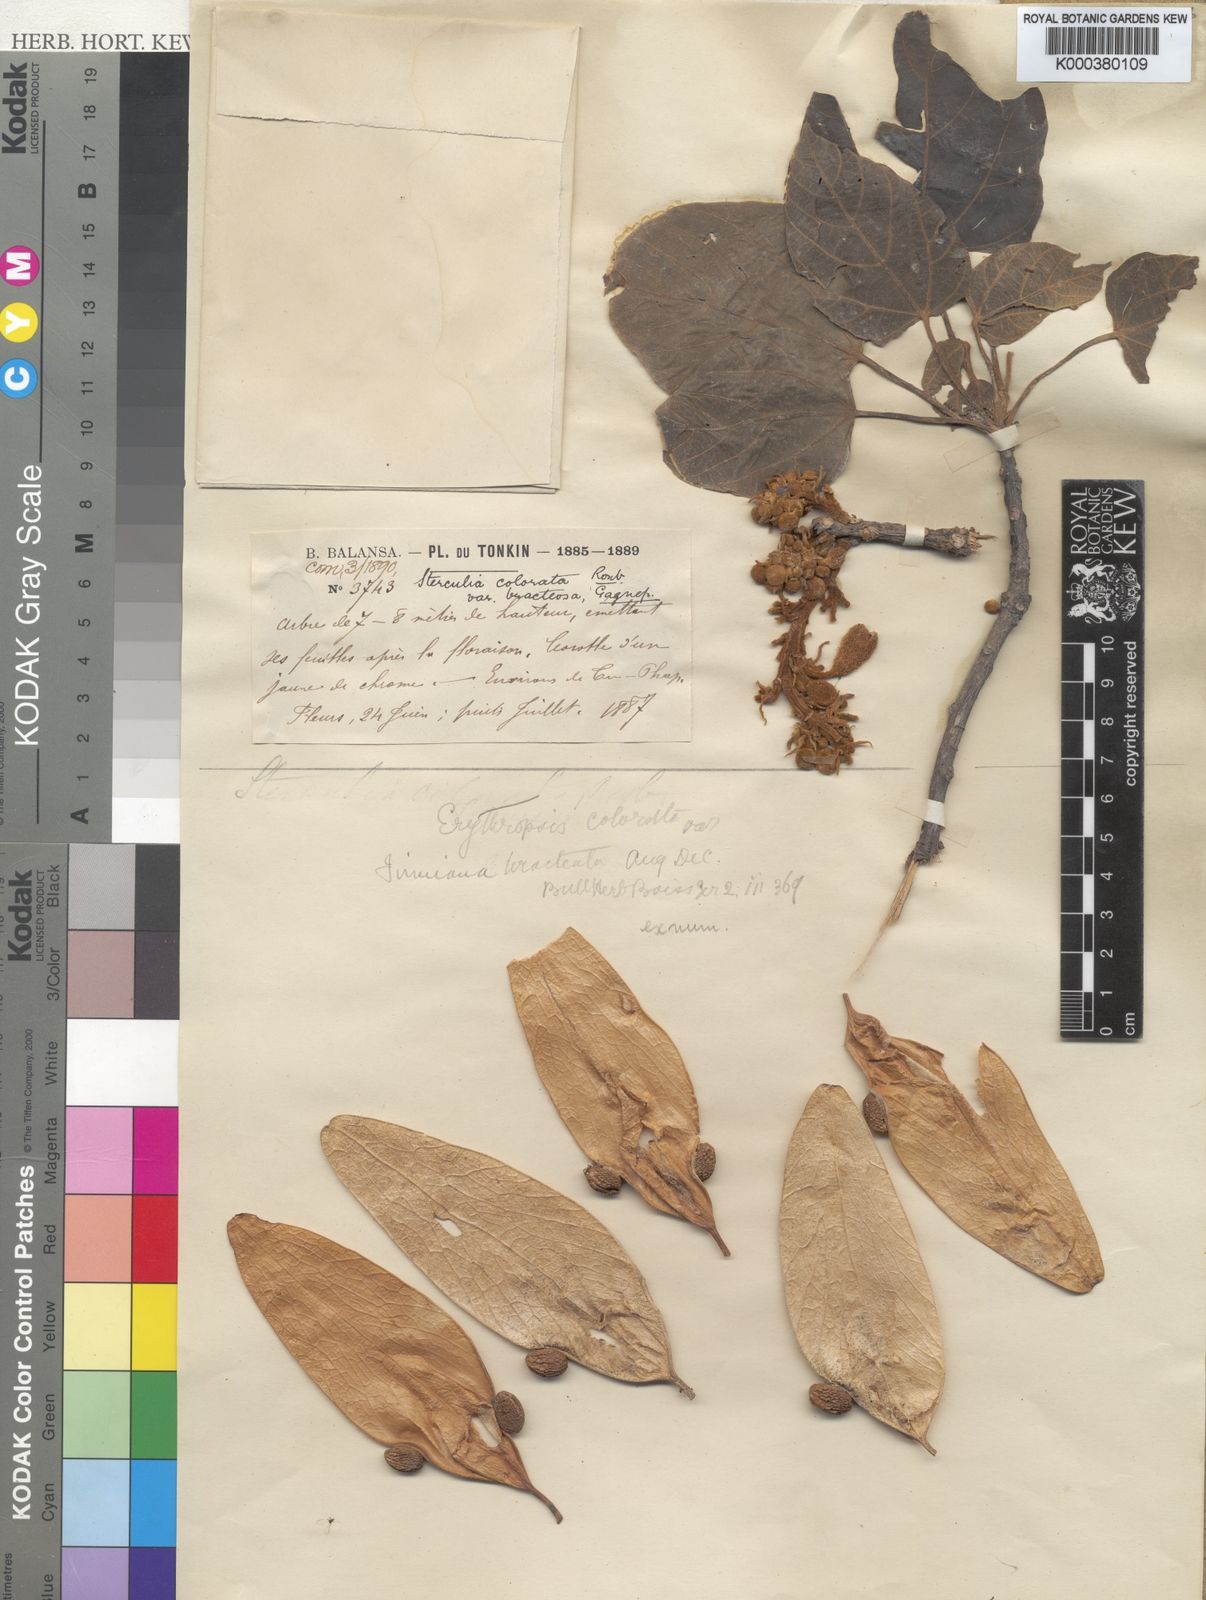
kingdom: Plantae
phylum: Tracheophyta
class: Magnoliopsida
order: Malvales
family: Malvaceae
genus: Firmiana
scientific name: Firmiana colorata
